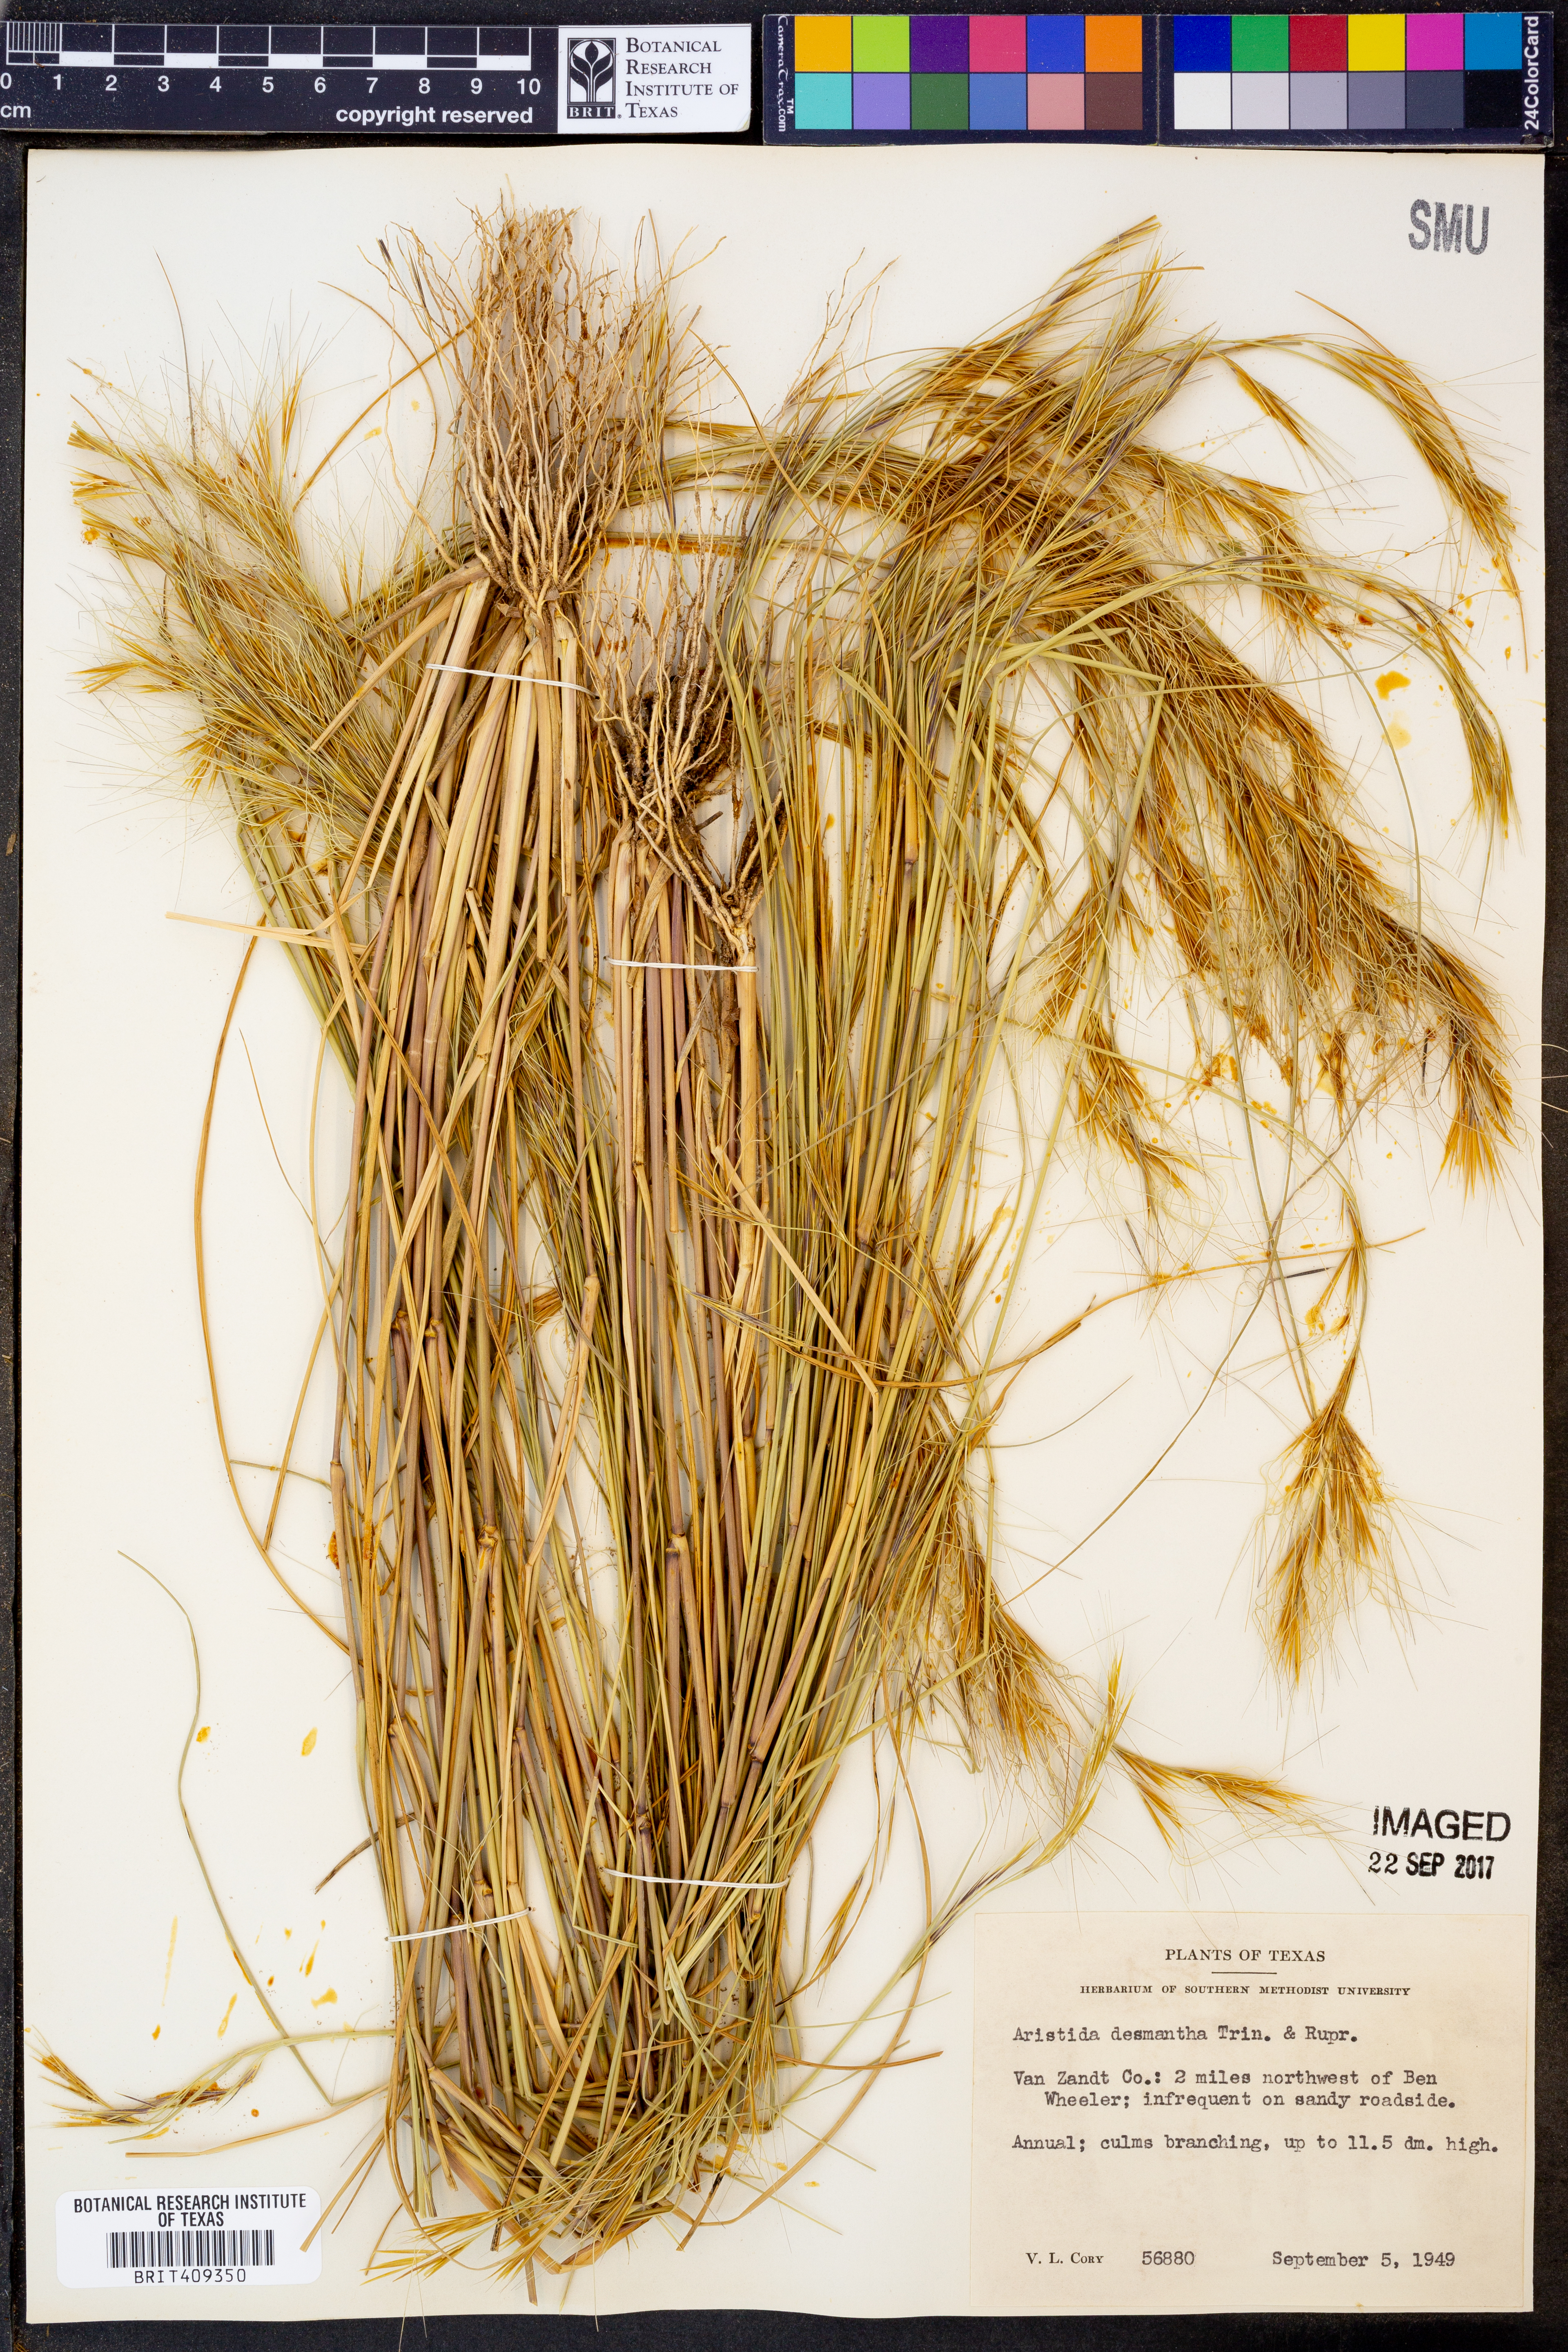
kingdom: Plantae
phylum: Tracheophyta
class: Liliopsida
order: Poales
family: Poaceae
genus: Aristida
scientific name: Aristida desmantha
